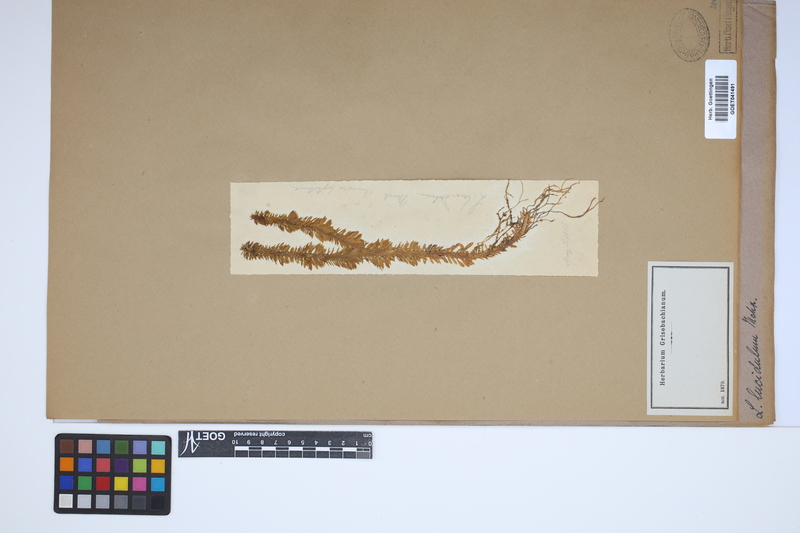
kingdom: Plantae
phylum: Tracheophyta
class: Lycopodiopsida
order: Lycopodiales
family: Lycopodiaceae
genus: Huperzia
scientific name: Huperzia lucidula
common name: Shining clubmoss
